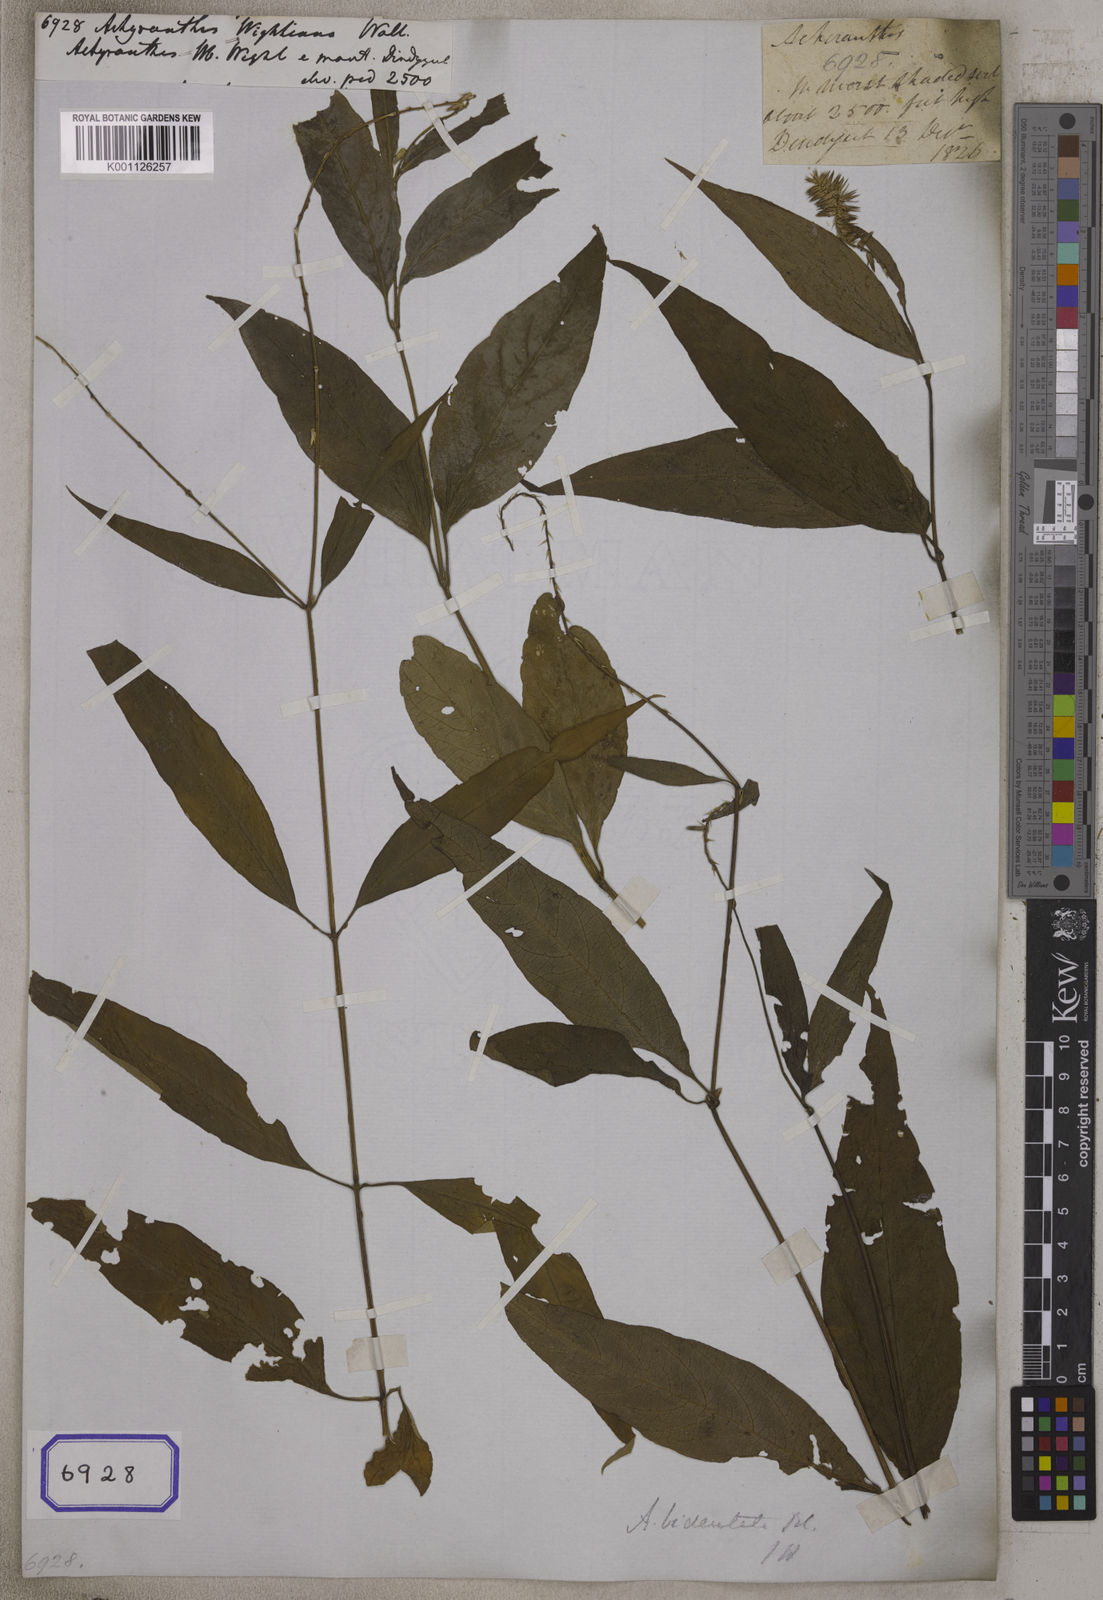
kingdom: Plantae
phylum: Tracheophyta
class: Magnoliopsida
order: Caryophyllales
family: Amaranthaceae
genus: Achyranthes
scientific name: Achyranthes bidentata
